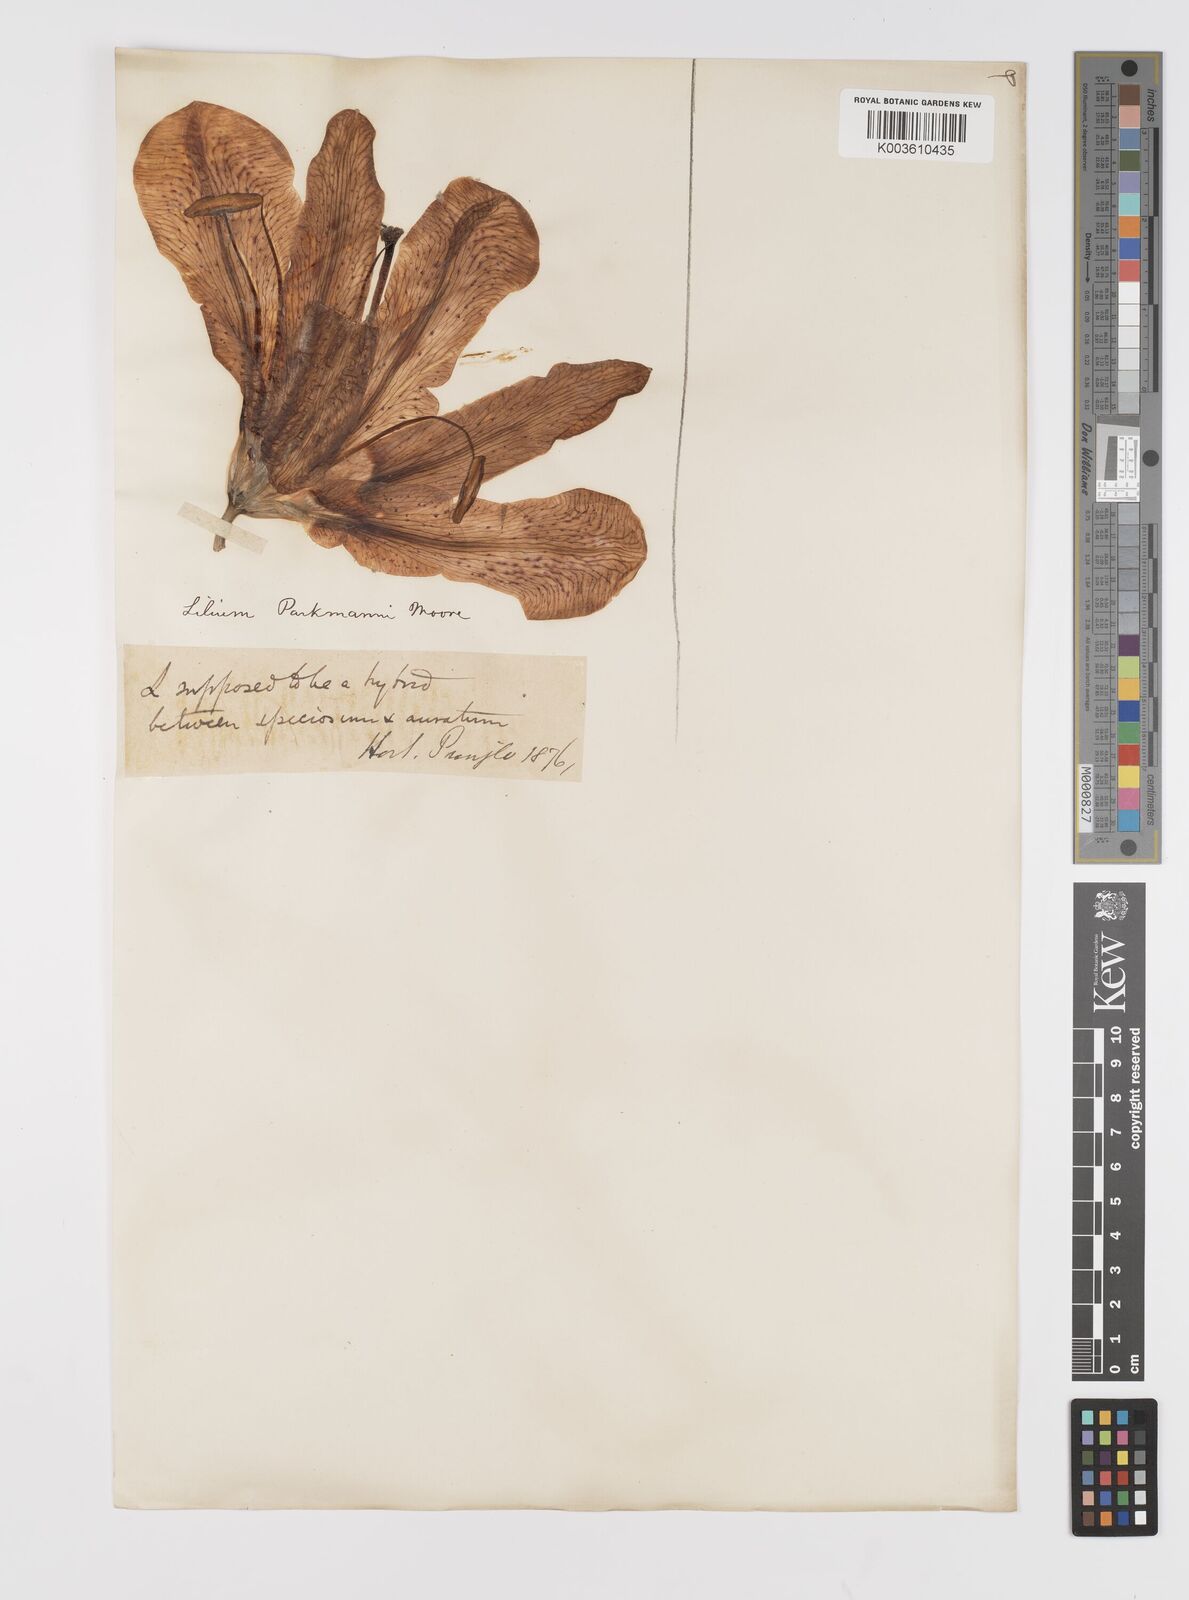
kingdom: Plantae
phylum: Tracheophyta
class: Liliopsida
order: Liliales
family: Liliaceae
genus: Lilium
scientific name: Lilium parkmanii
